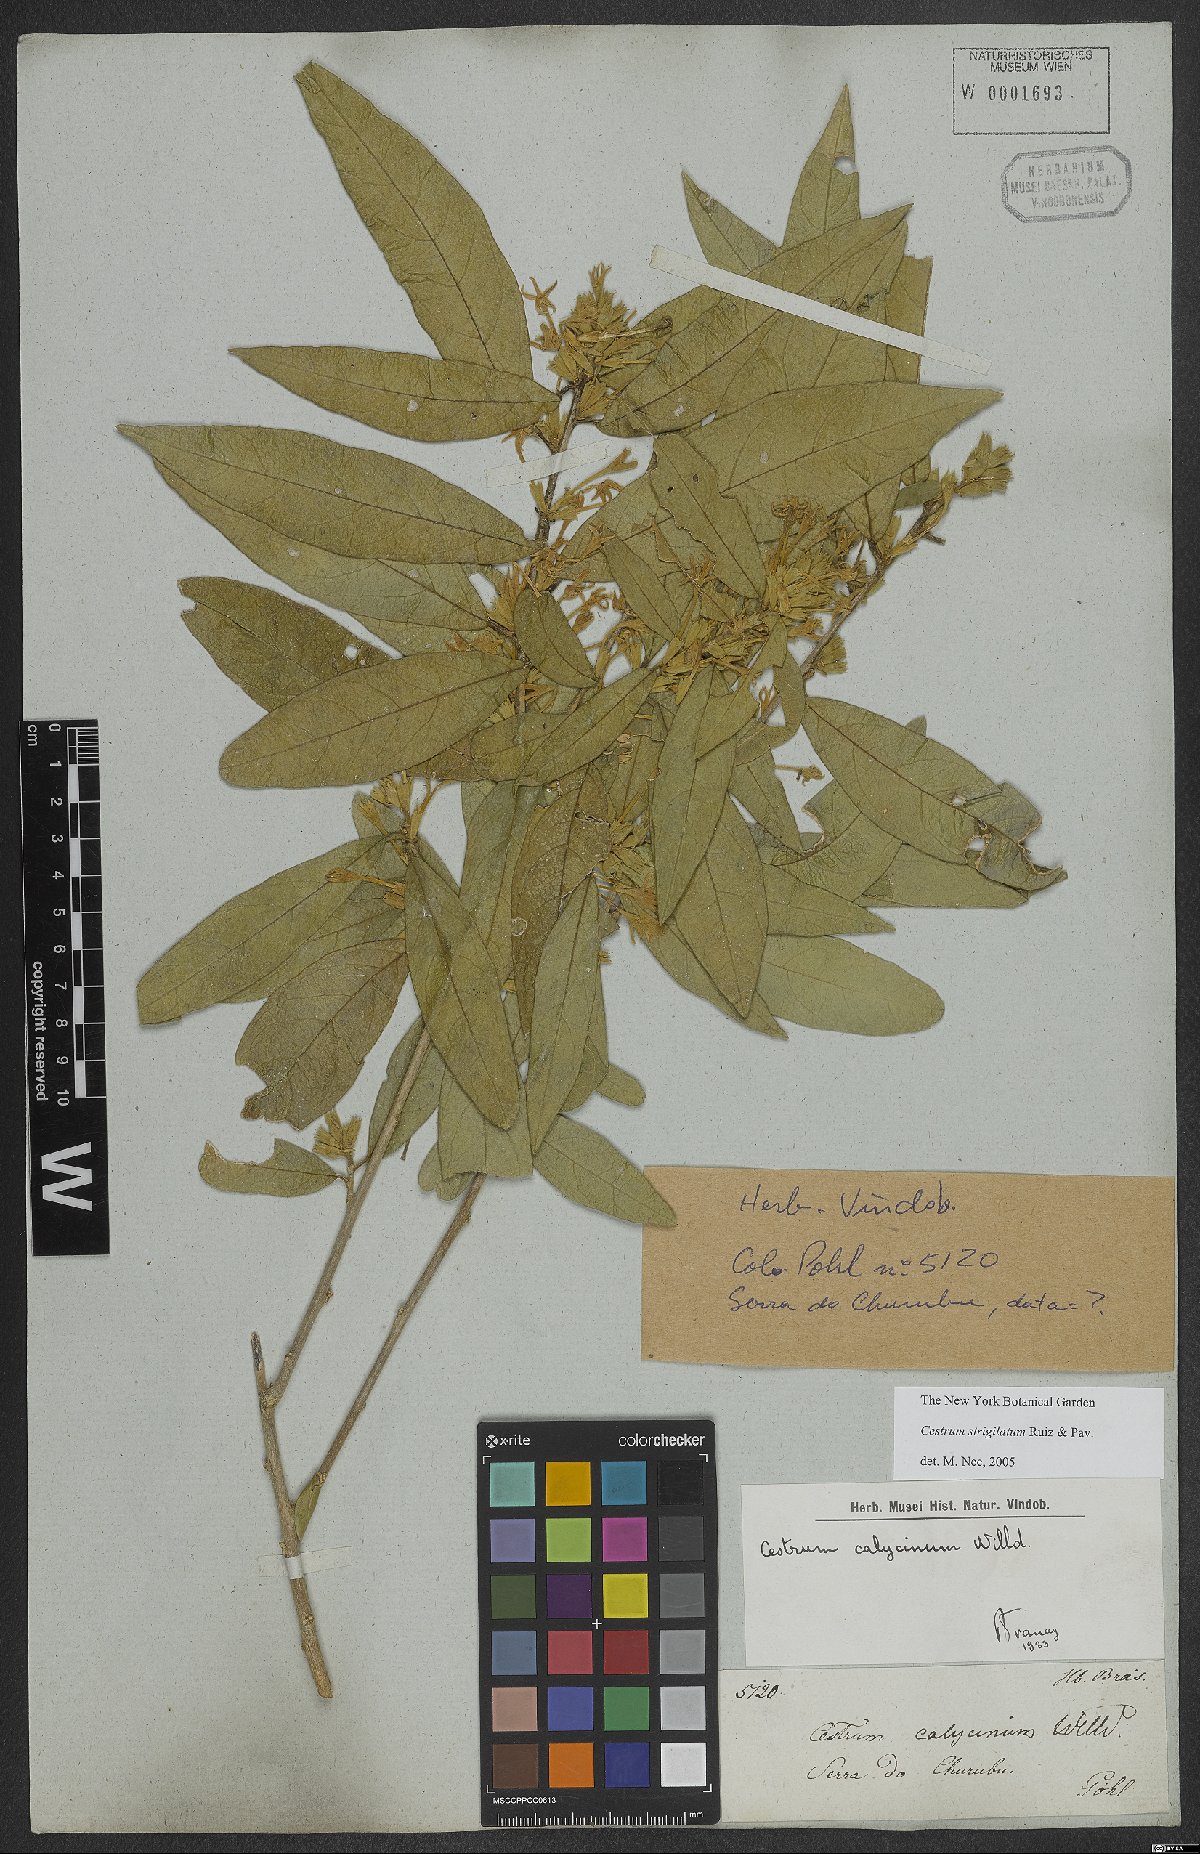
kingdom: Plantae
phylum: Tracheophyta
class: Magnoliopsida
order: Solanales
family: Solanaceae
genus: Cestrum
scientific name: Cestrum strigillatum
